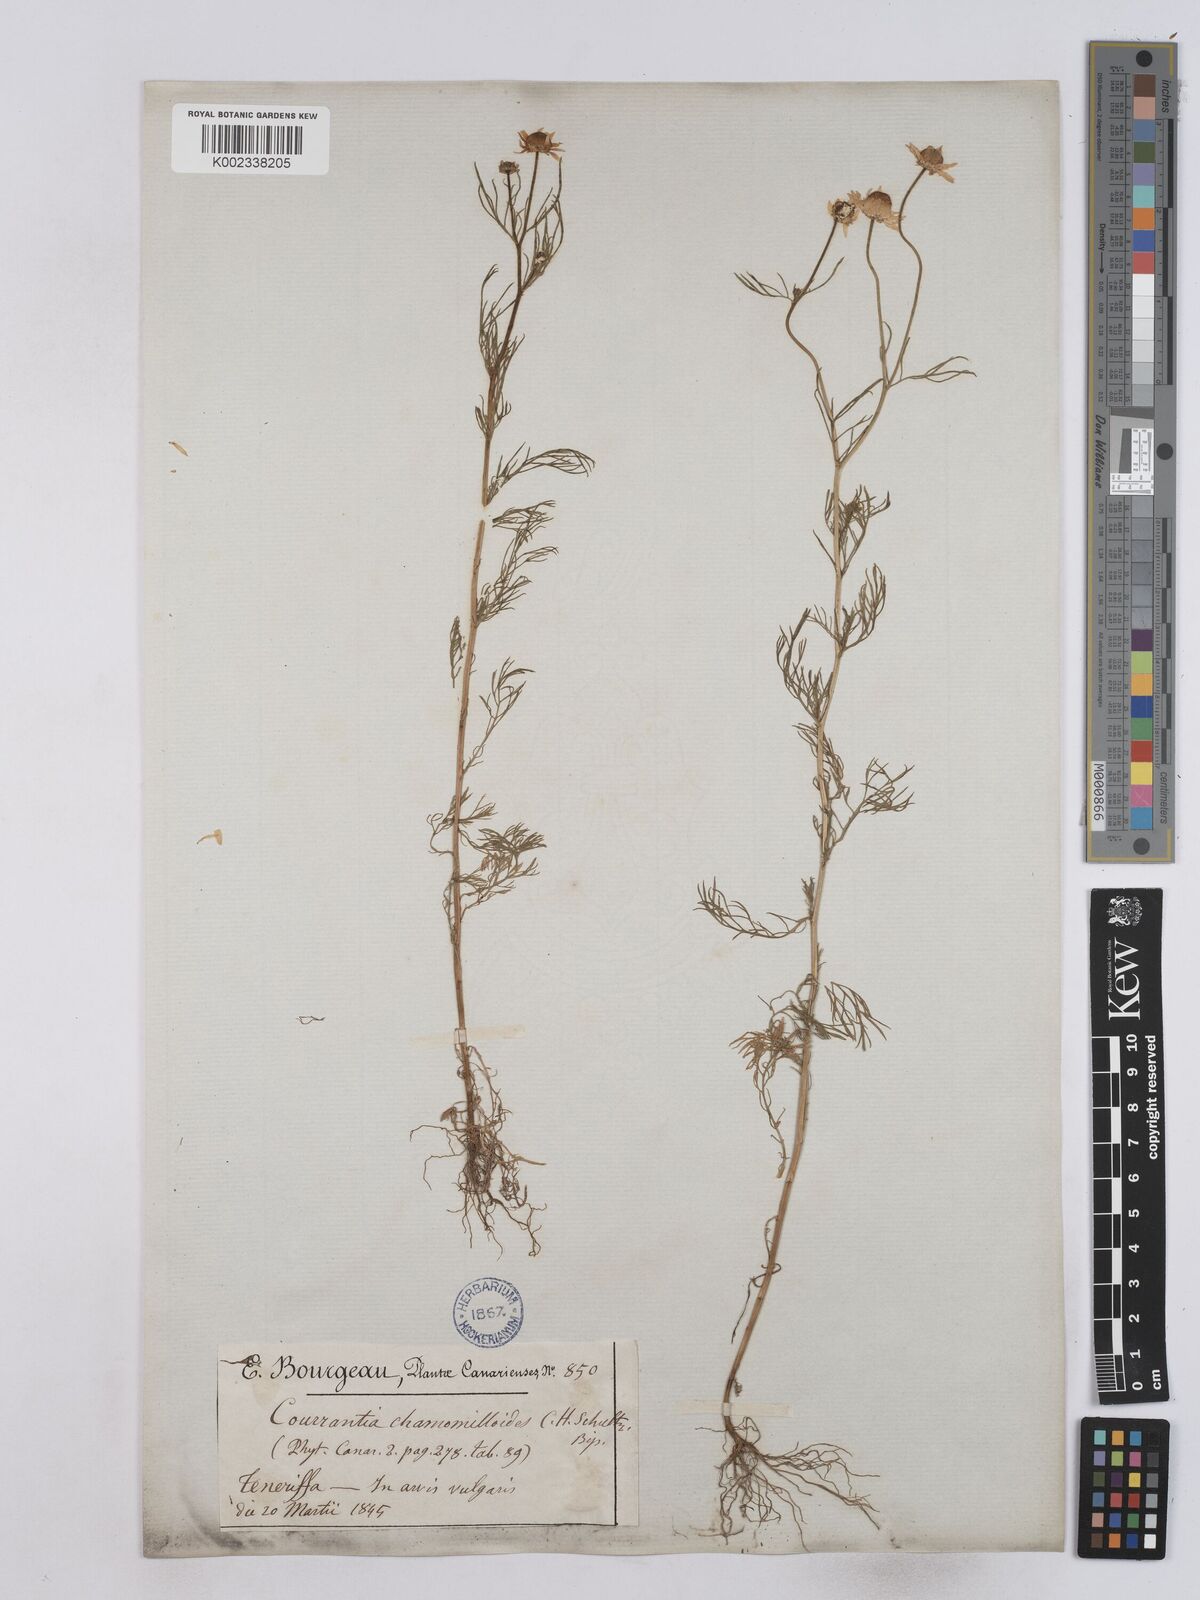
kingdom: Plantae
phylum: Tracheophyta
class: Magnoliopsida
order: Asterales
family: Asteraceae
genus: Matricaria
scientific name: Matricaria chamomilla
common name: Scented mayweed
